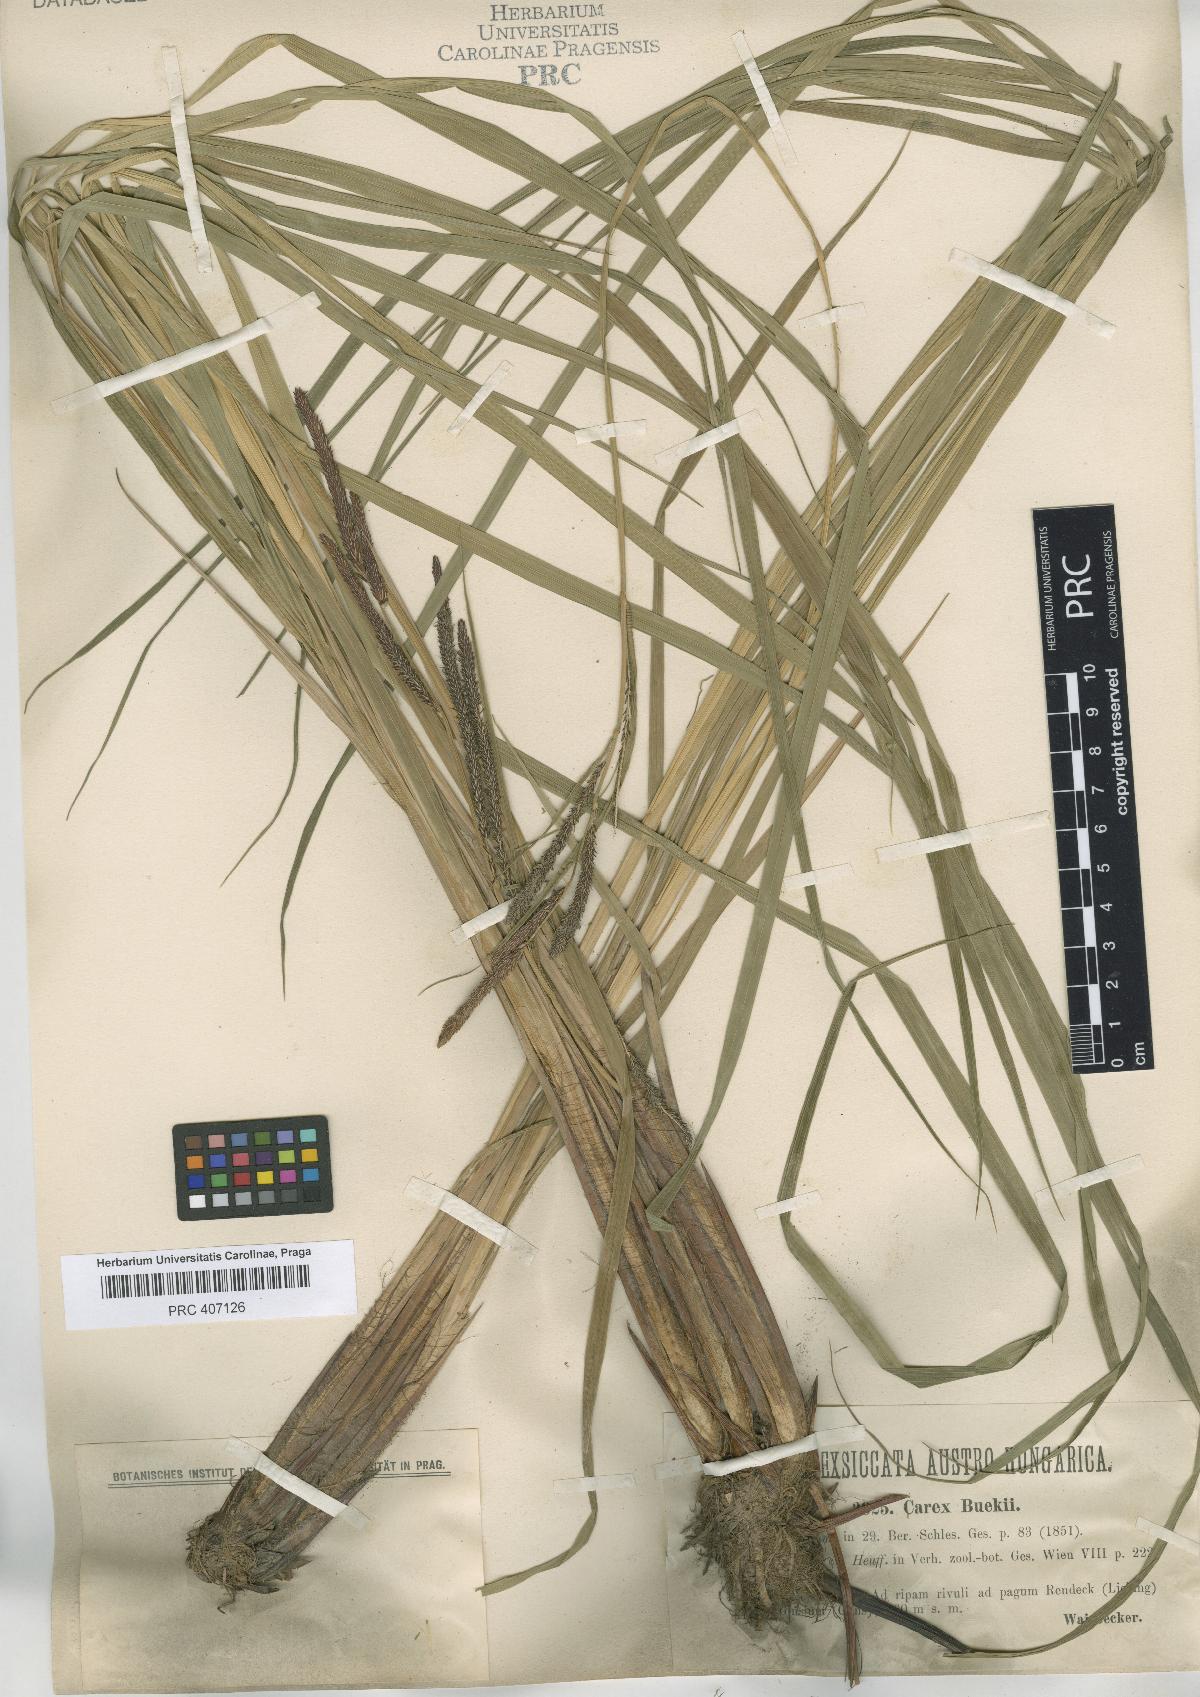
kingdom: Plantae
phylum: Tracheophyta
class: Liliopsida
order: Poales
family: Cyperaceae
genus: Carex
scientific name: Carex buekii
